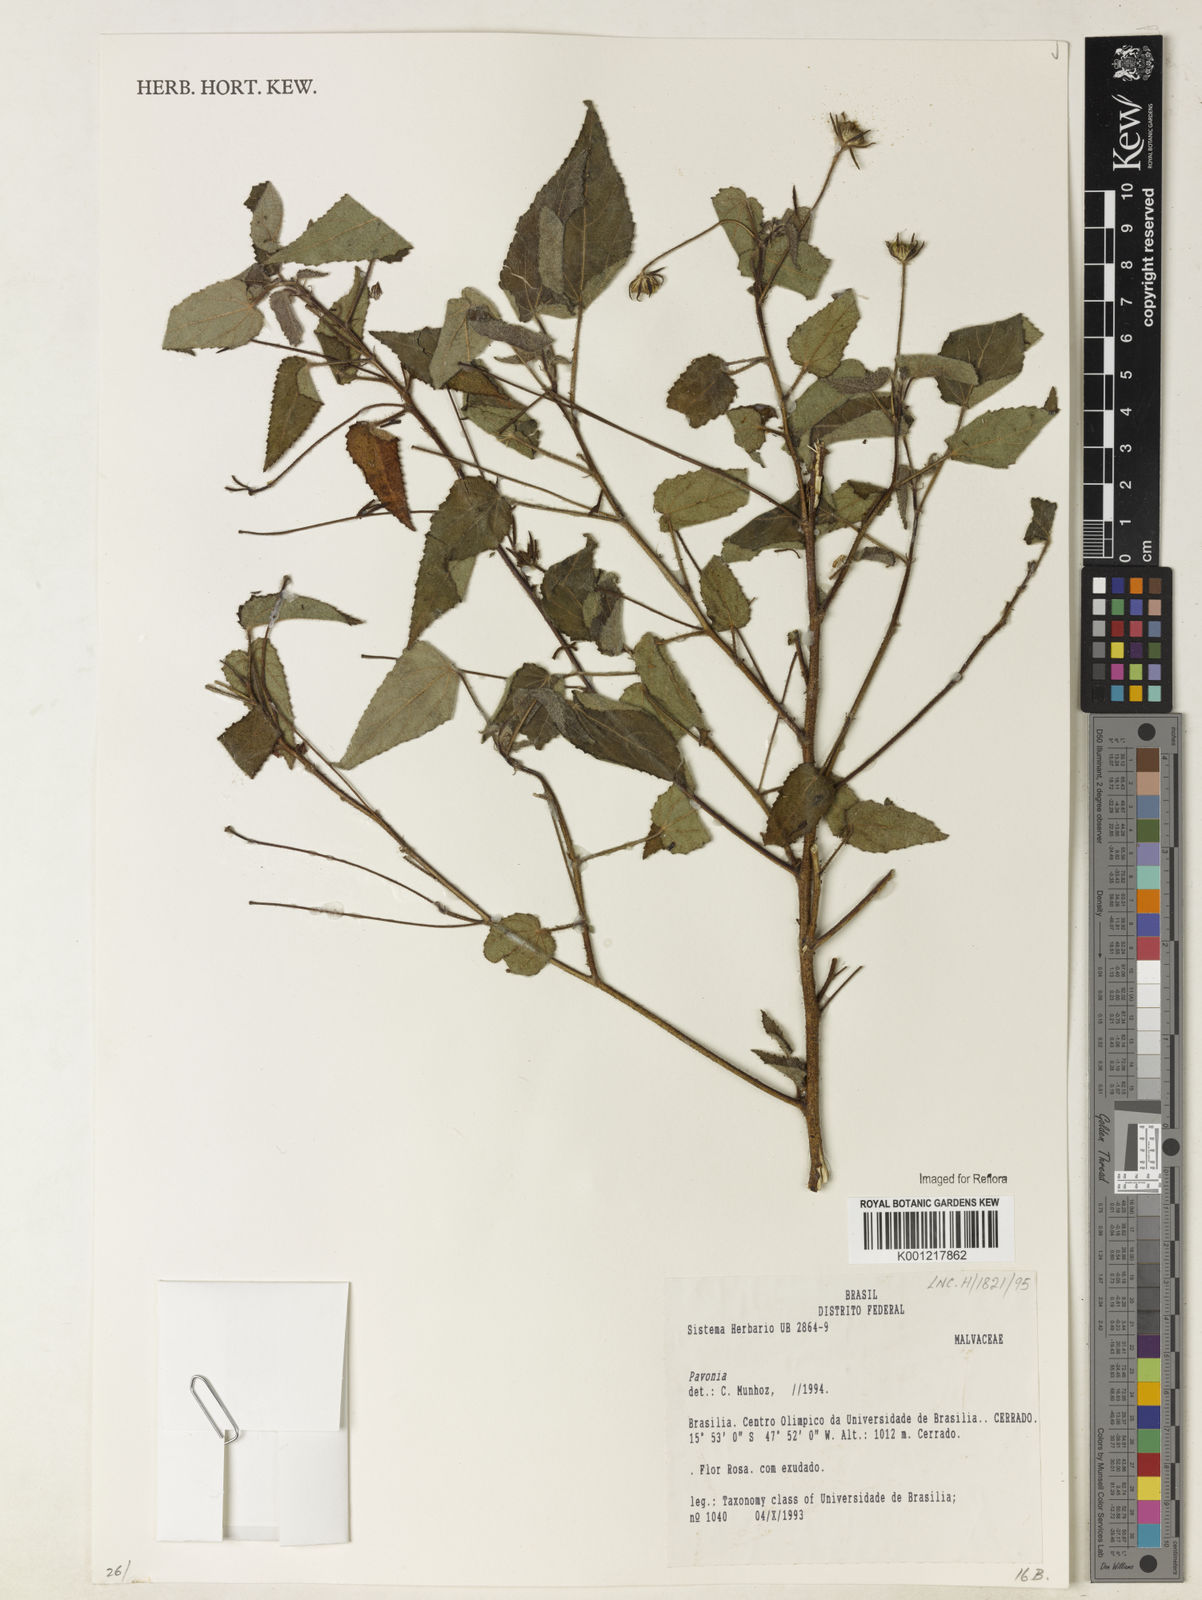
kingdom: Plantae
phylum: Tracheophyta
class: Magnoliopsida
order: Malvales
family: Malvaceae
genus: Pavonia
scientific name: Pavonia
